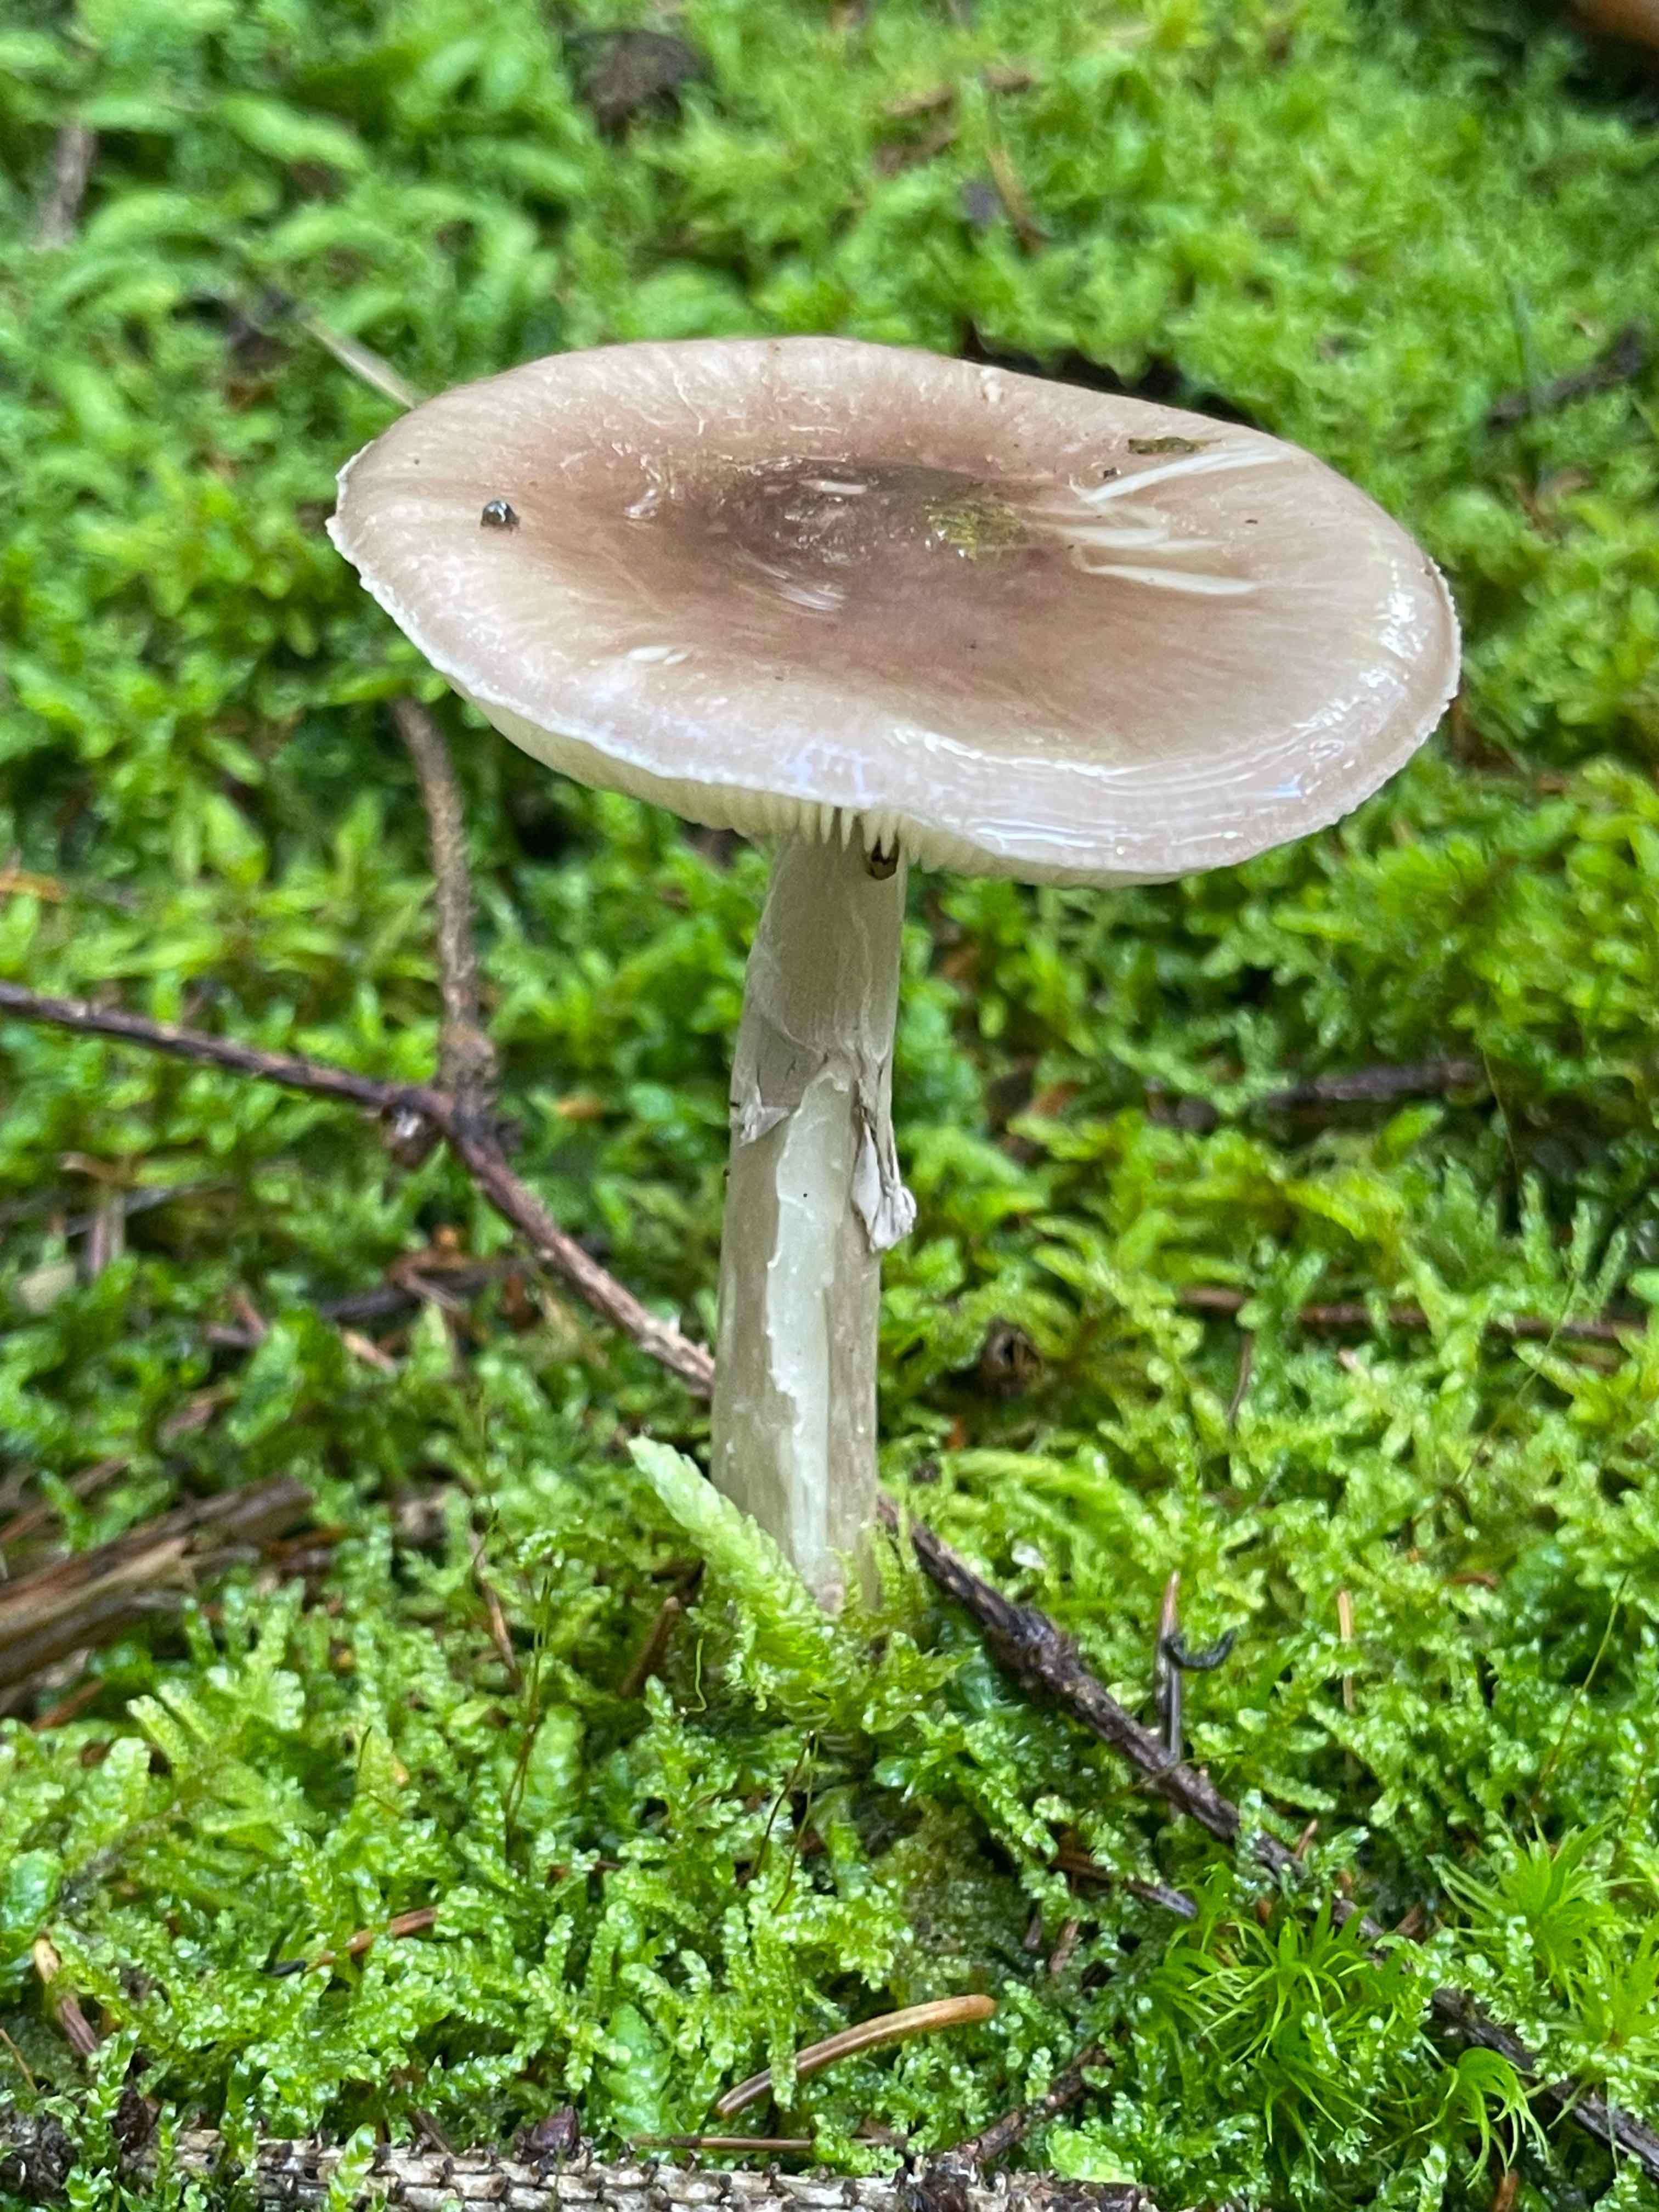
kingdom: Fungi
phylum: Basidiomycota
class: Agaricomycetes
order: Agaricales
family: Amanitaceae
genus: Amanita
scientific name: Amanita porphyria
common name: porfyr-fluesvamp
